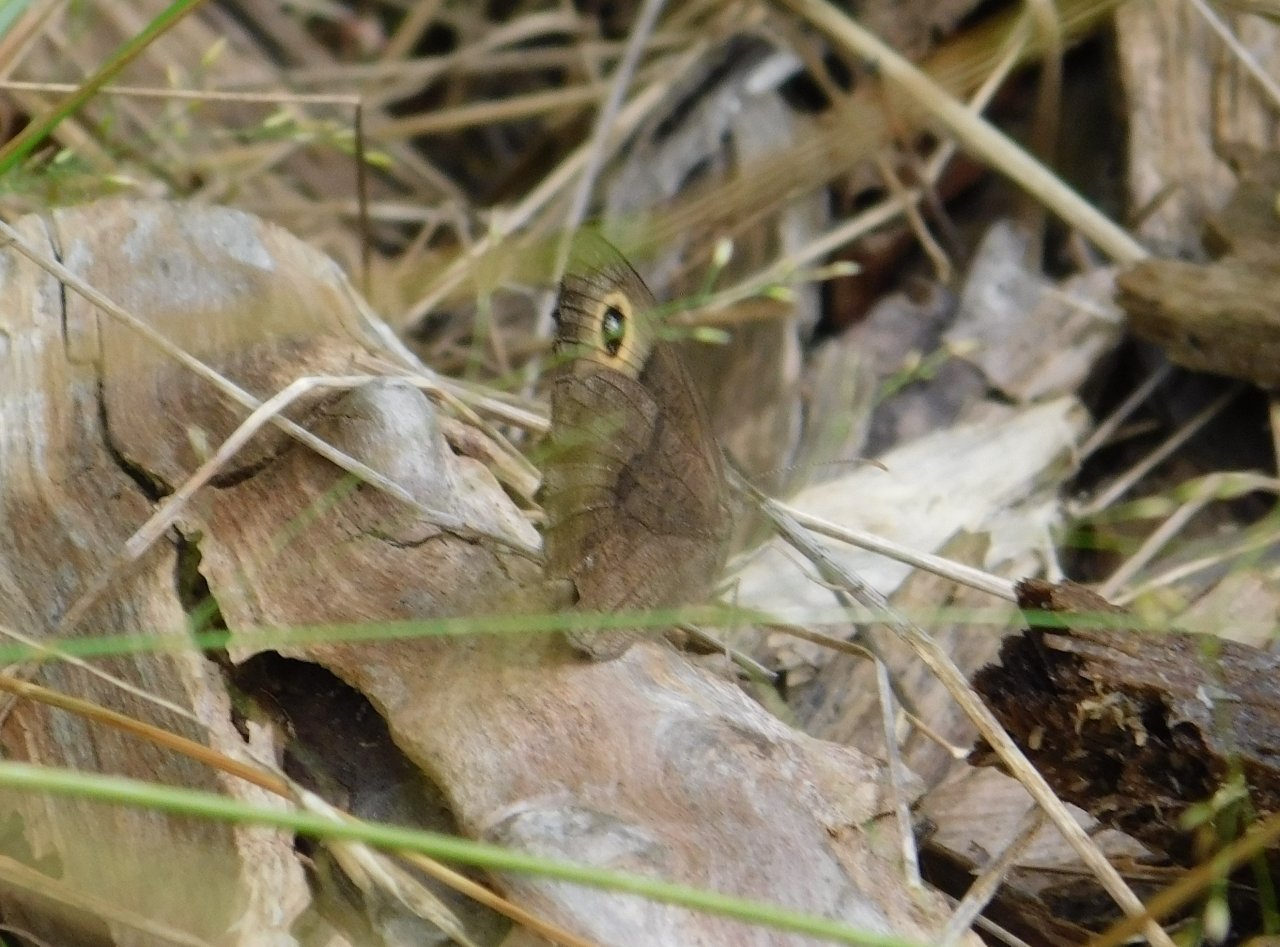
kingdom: Animalia
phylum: Arthropoda
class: Insecta
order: Lepidoptera
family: Nymphalidae
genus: Cercyonis
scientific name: Cercyonis pegala
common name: Common Wood-Nymph
